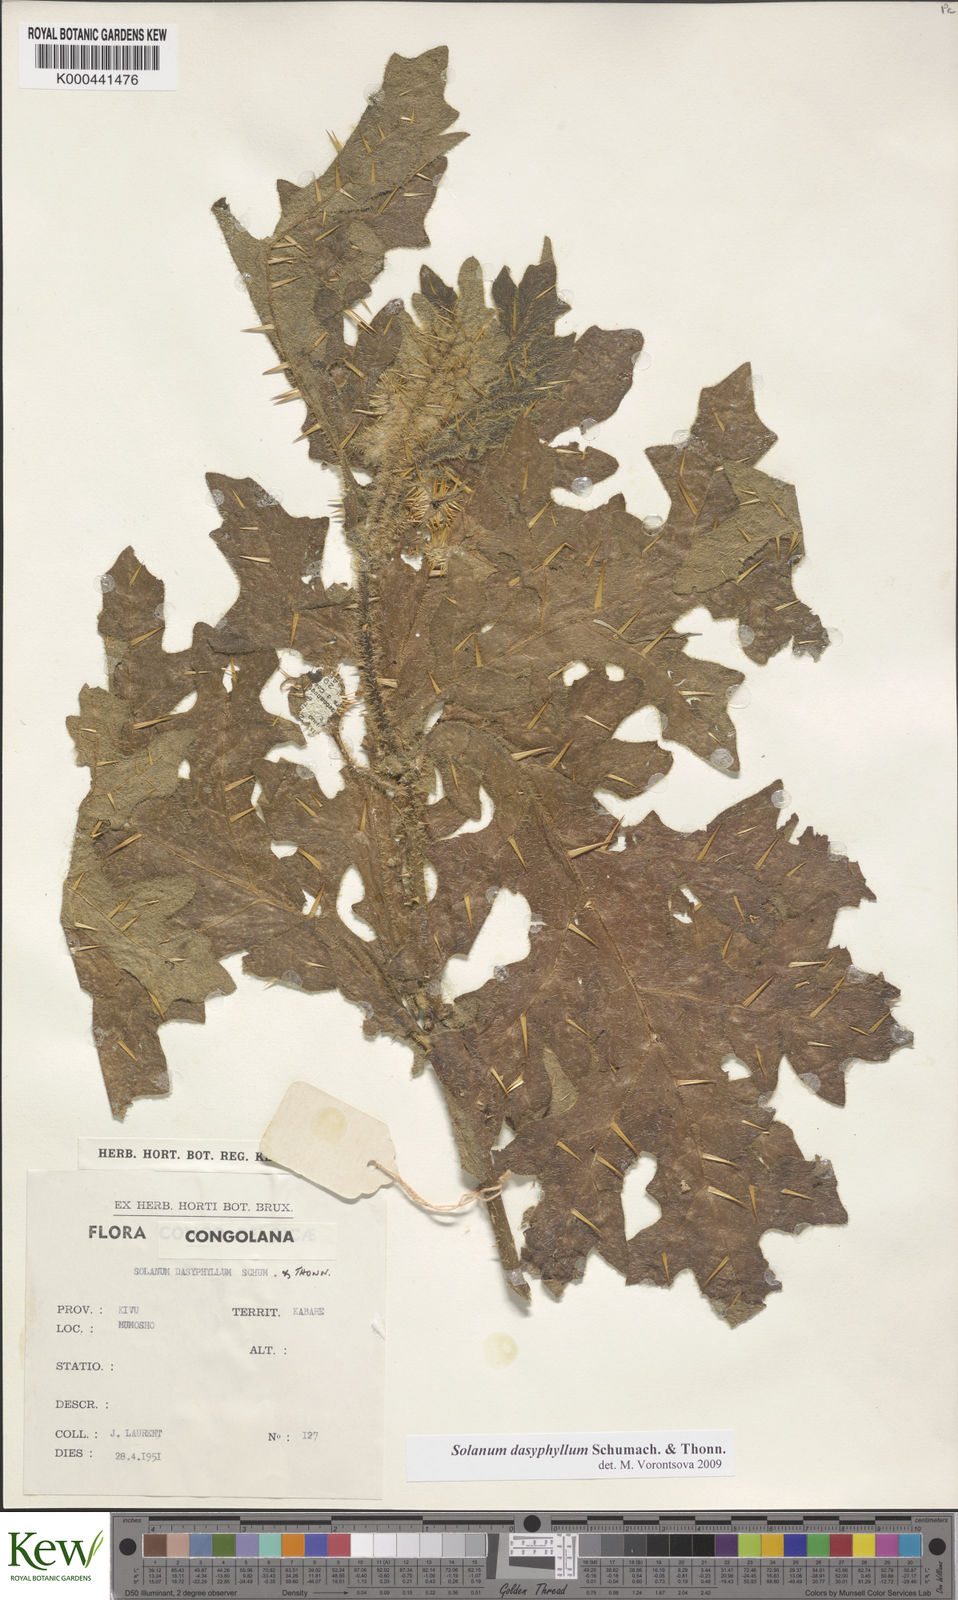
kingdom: Plantae
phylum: Tracheophyta
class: Magnoliopsida
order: Solanales
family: Solanaceae
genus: Solanum
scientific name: Solanum dasyphyllum
